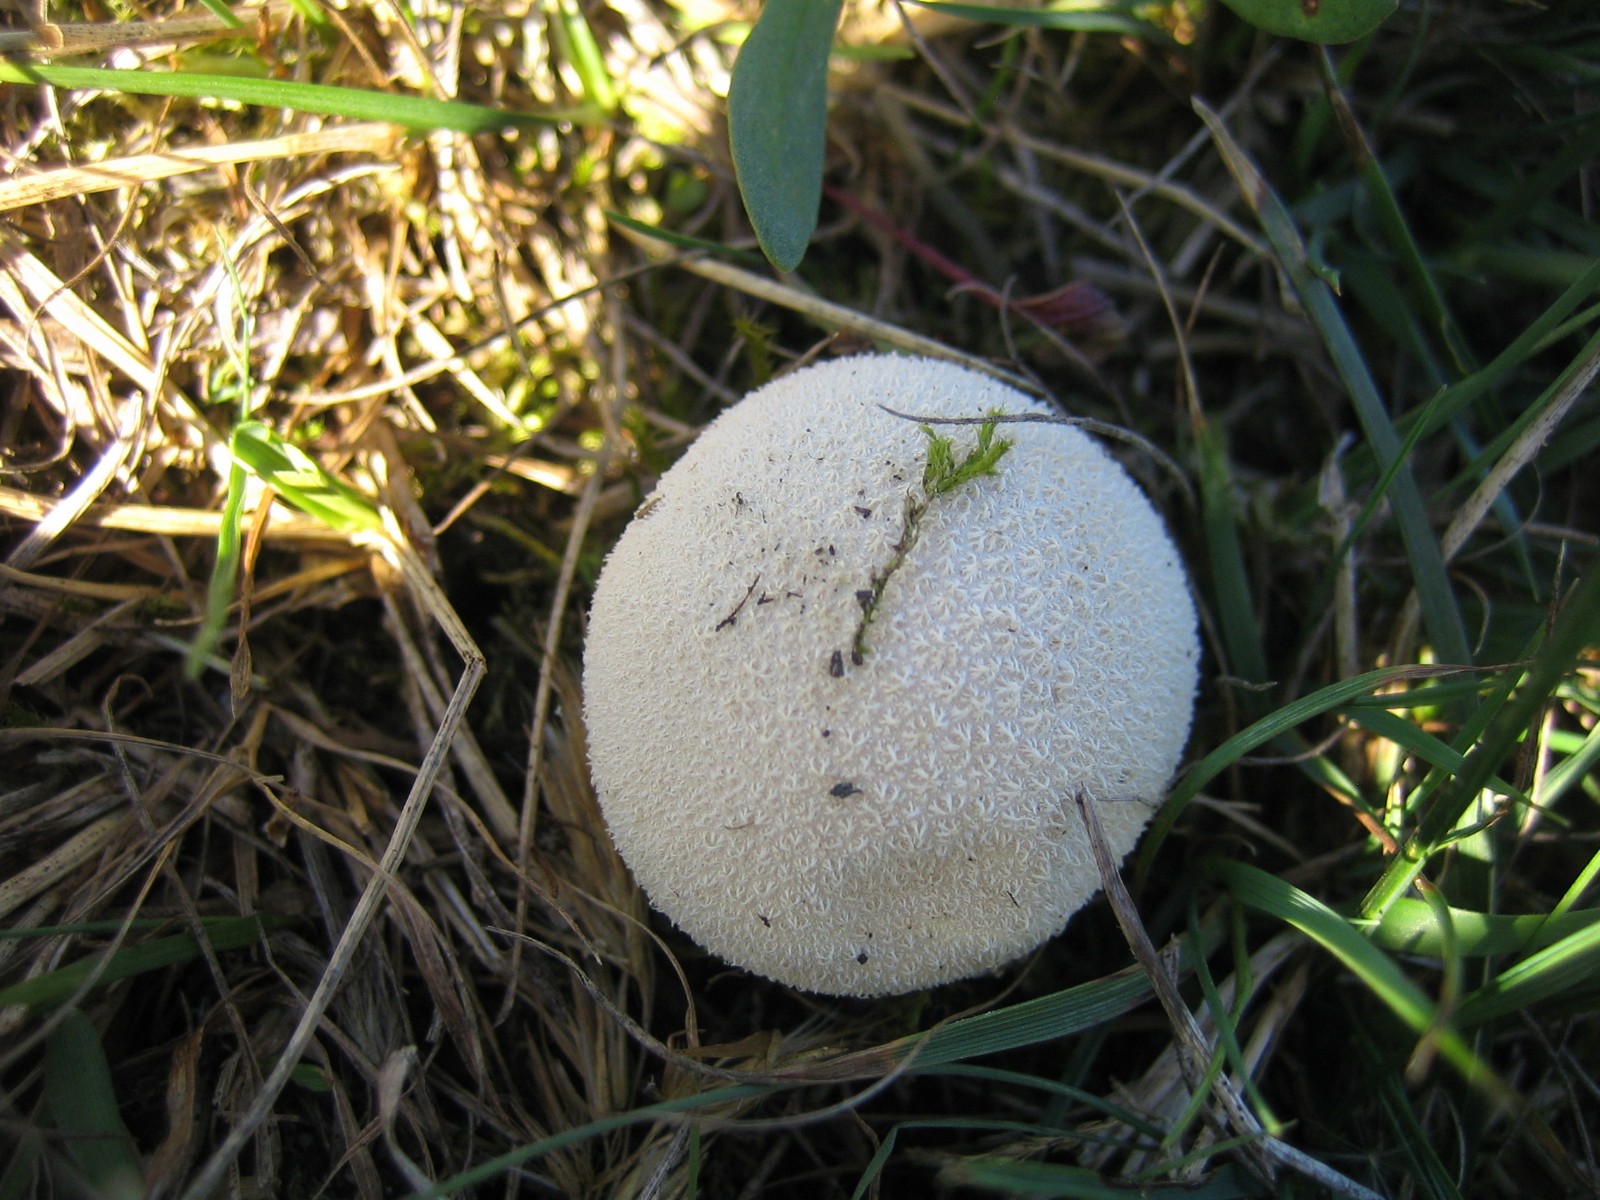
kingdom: Fungi
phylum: Basidiomycota
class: Agaricomycetes
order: Agaricales
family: Lycoperdaceae
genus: Lycoperdon
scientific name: Lycoperdon pratense
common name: flad støvbold
